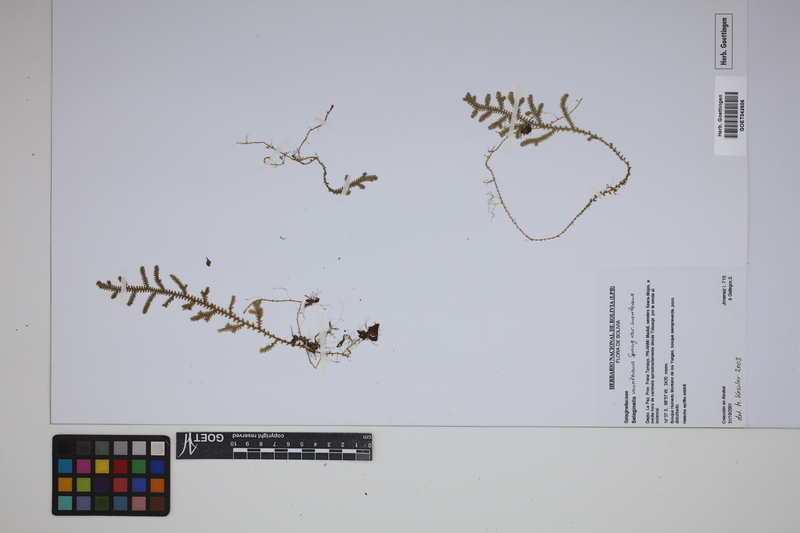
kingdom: Plantae
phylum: Tracheophyta
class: Lycopodiopsida
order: Selaginellales
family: Selaginellaceae
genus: Selaginella
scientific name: Selaginella moritziana
